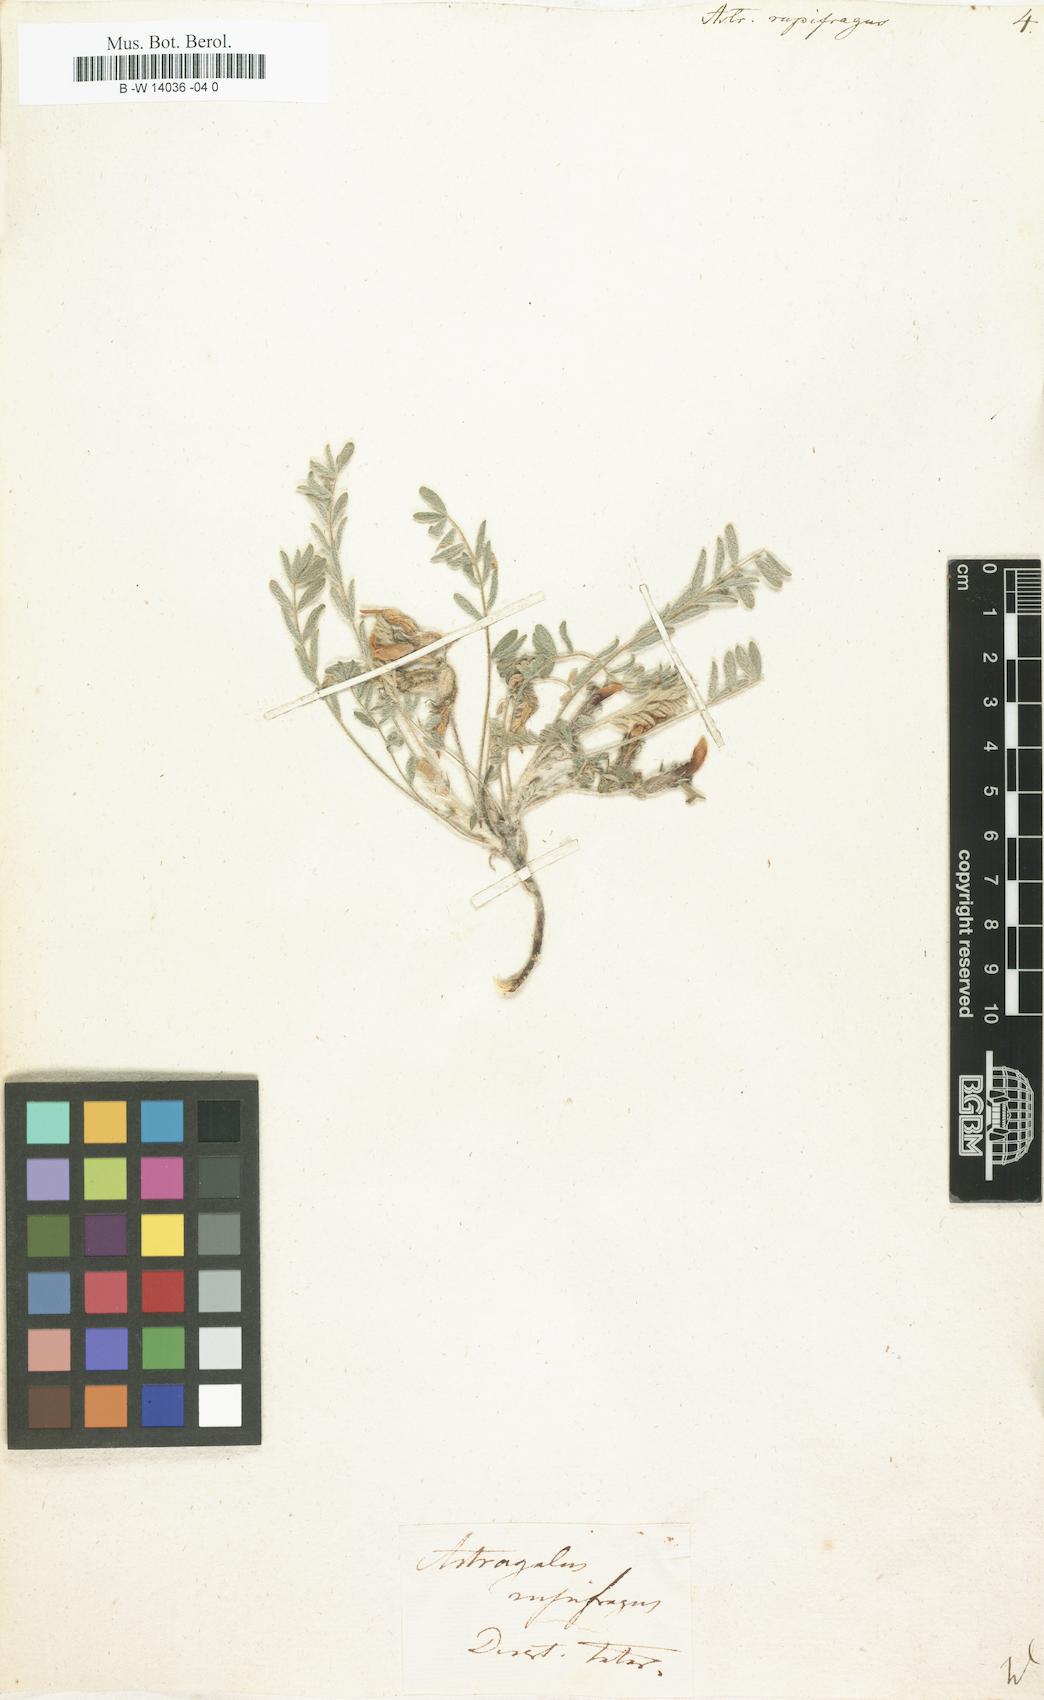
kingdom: Plantae
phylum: Tracheophyta
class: Magnoliopsida
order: Fabales
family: Fabaceae
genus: Astragalus
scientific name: Astragalus rupifragus
